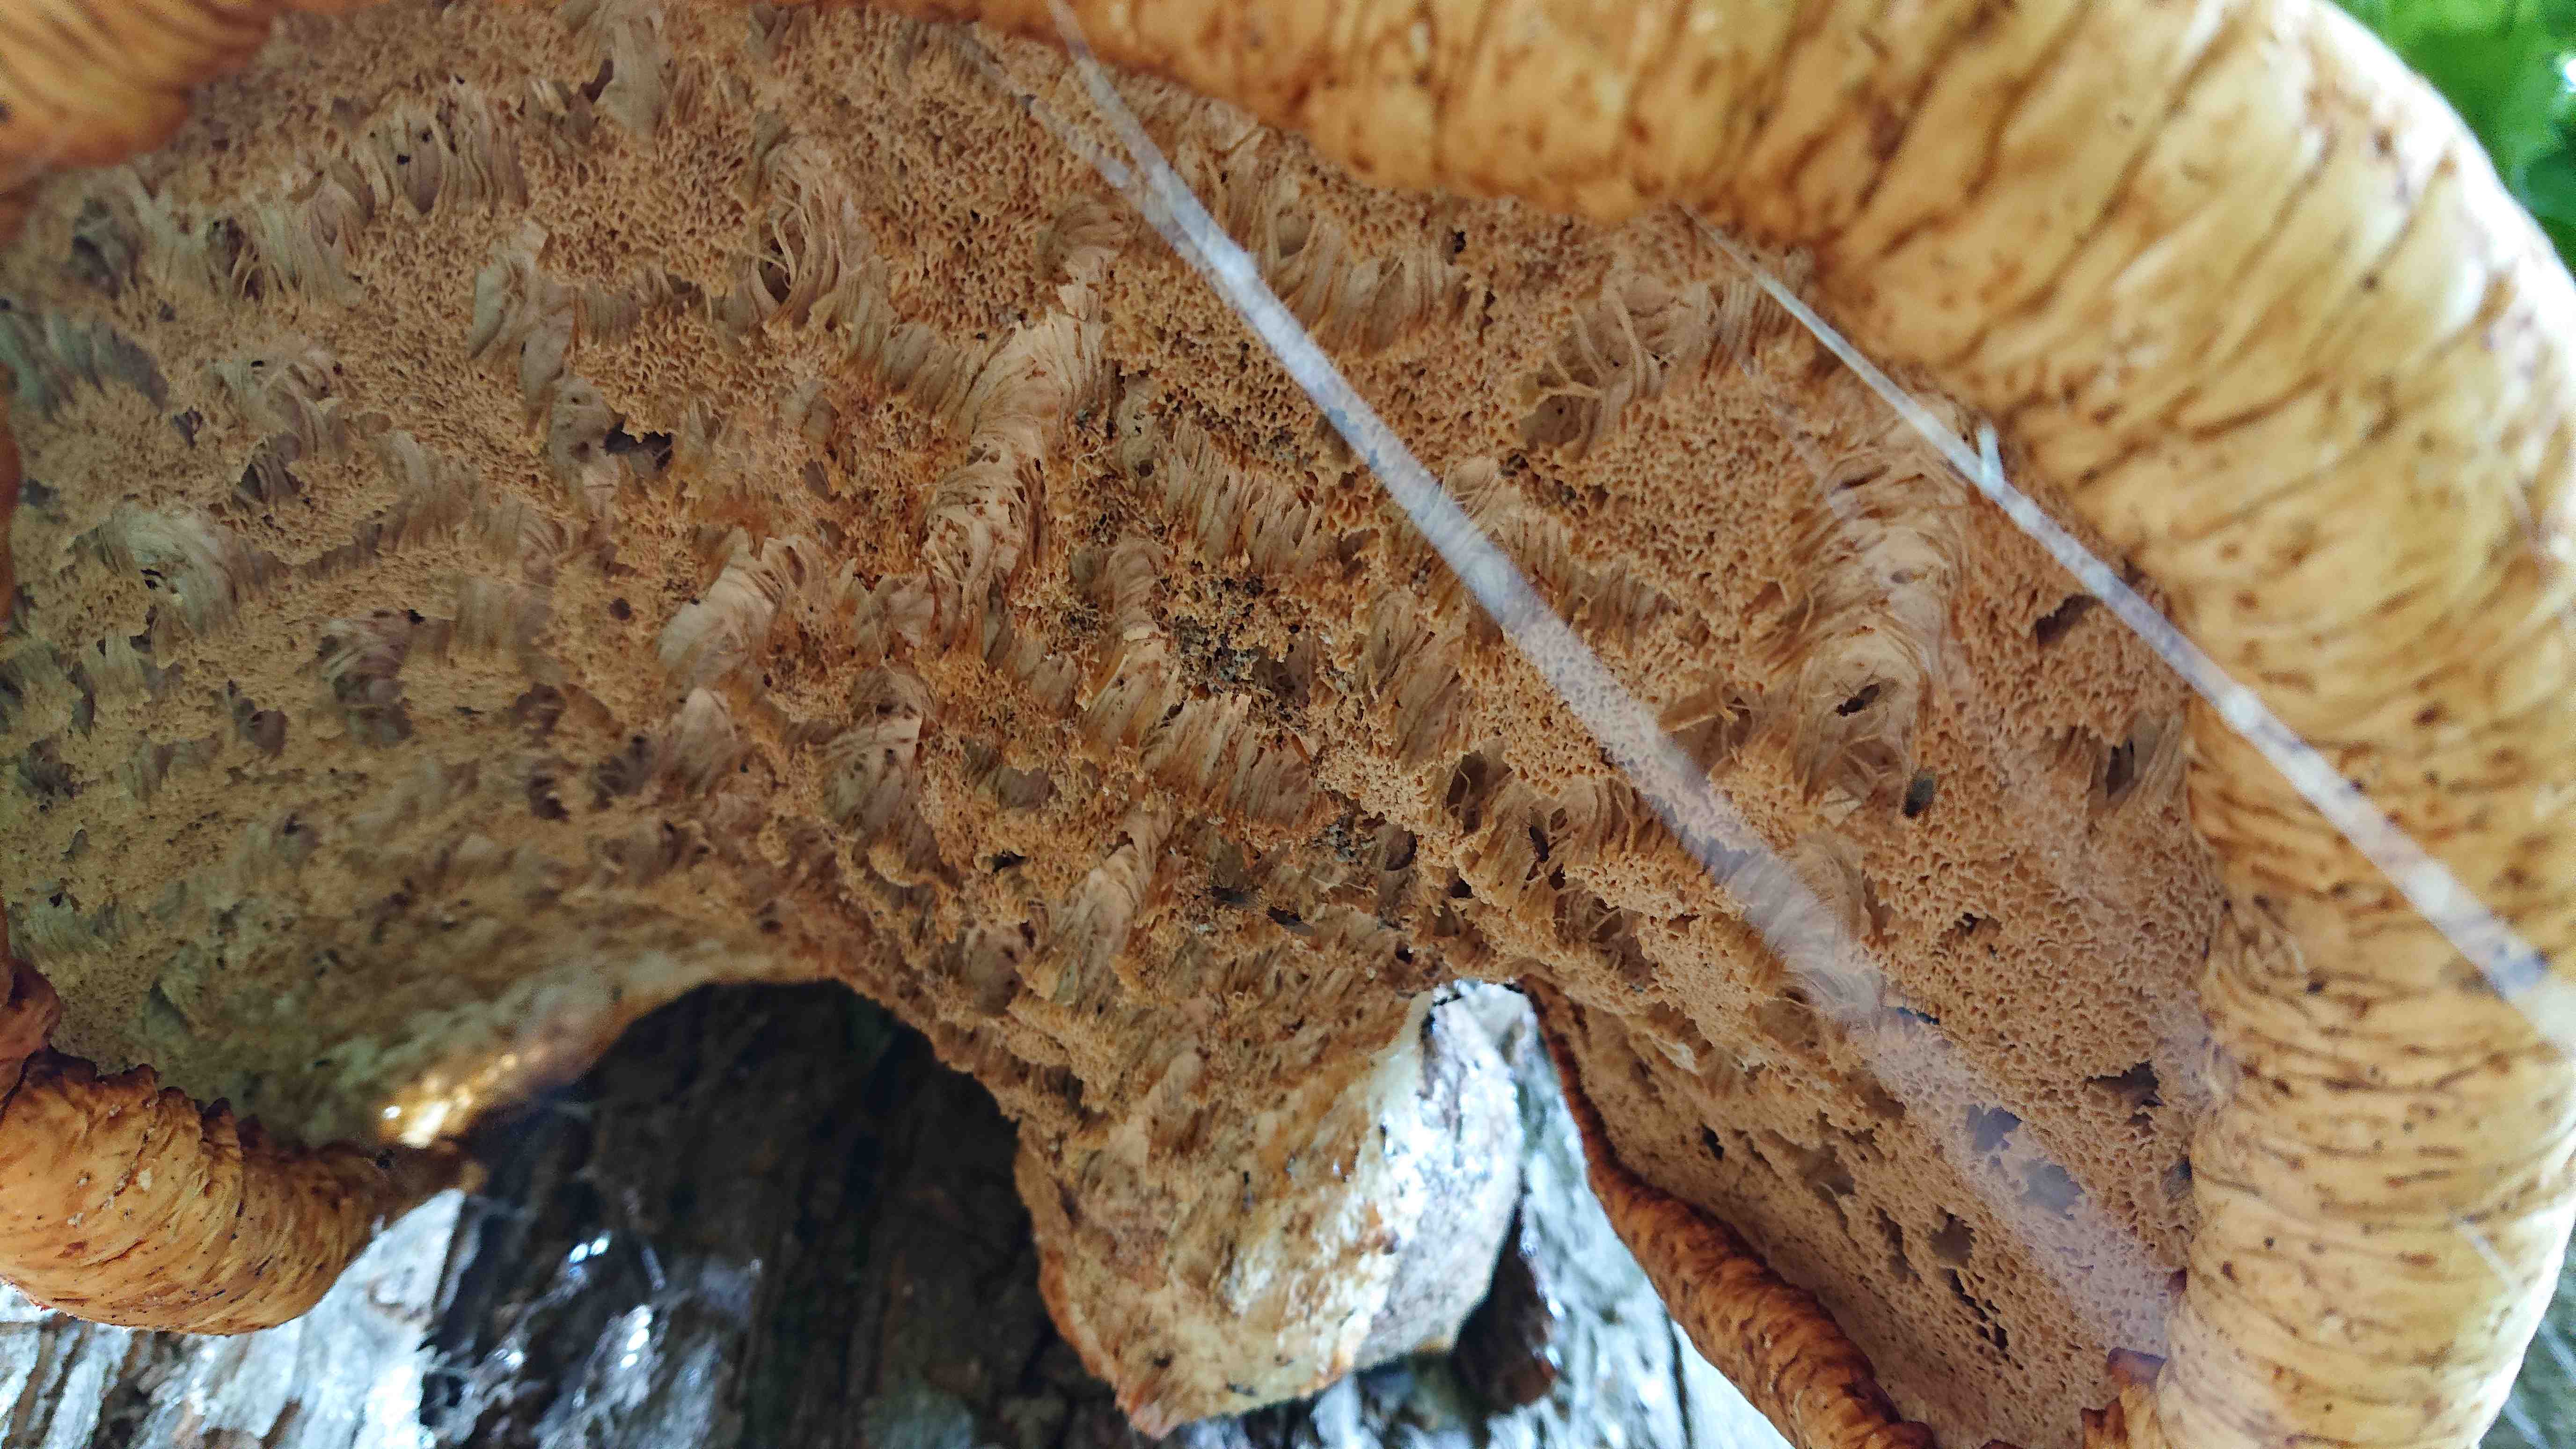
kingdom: Fungi
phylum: Basidiomycota
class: Agaricomycetes
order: Polyporales
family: Polyporaceae
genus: Cerioporus
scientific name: Cerioporus squamosus
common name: skællet stilkporesvamp
